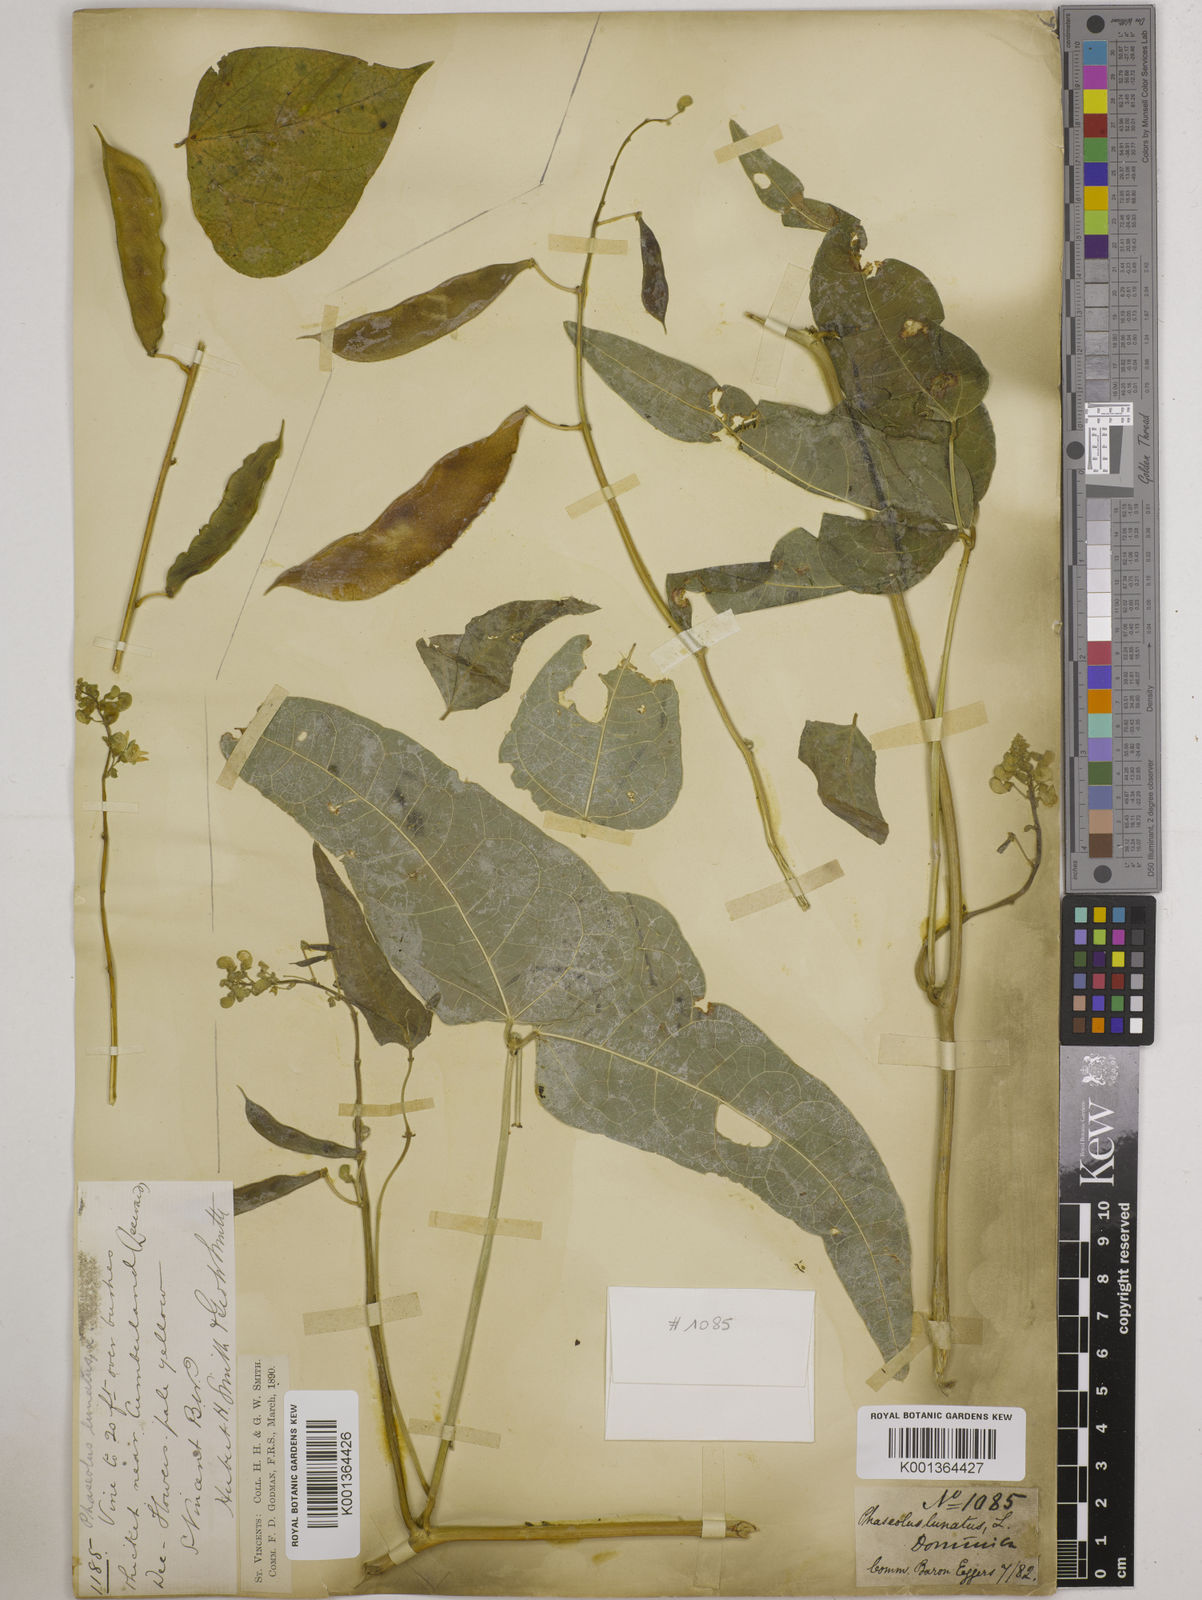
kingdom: Plantae
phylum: Tracheophyta
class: Magnoliopsida
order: Fabales
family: Fabaceae
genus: Phaseolus
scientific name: Phaseolus lunatus
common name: Sieva bean
